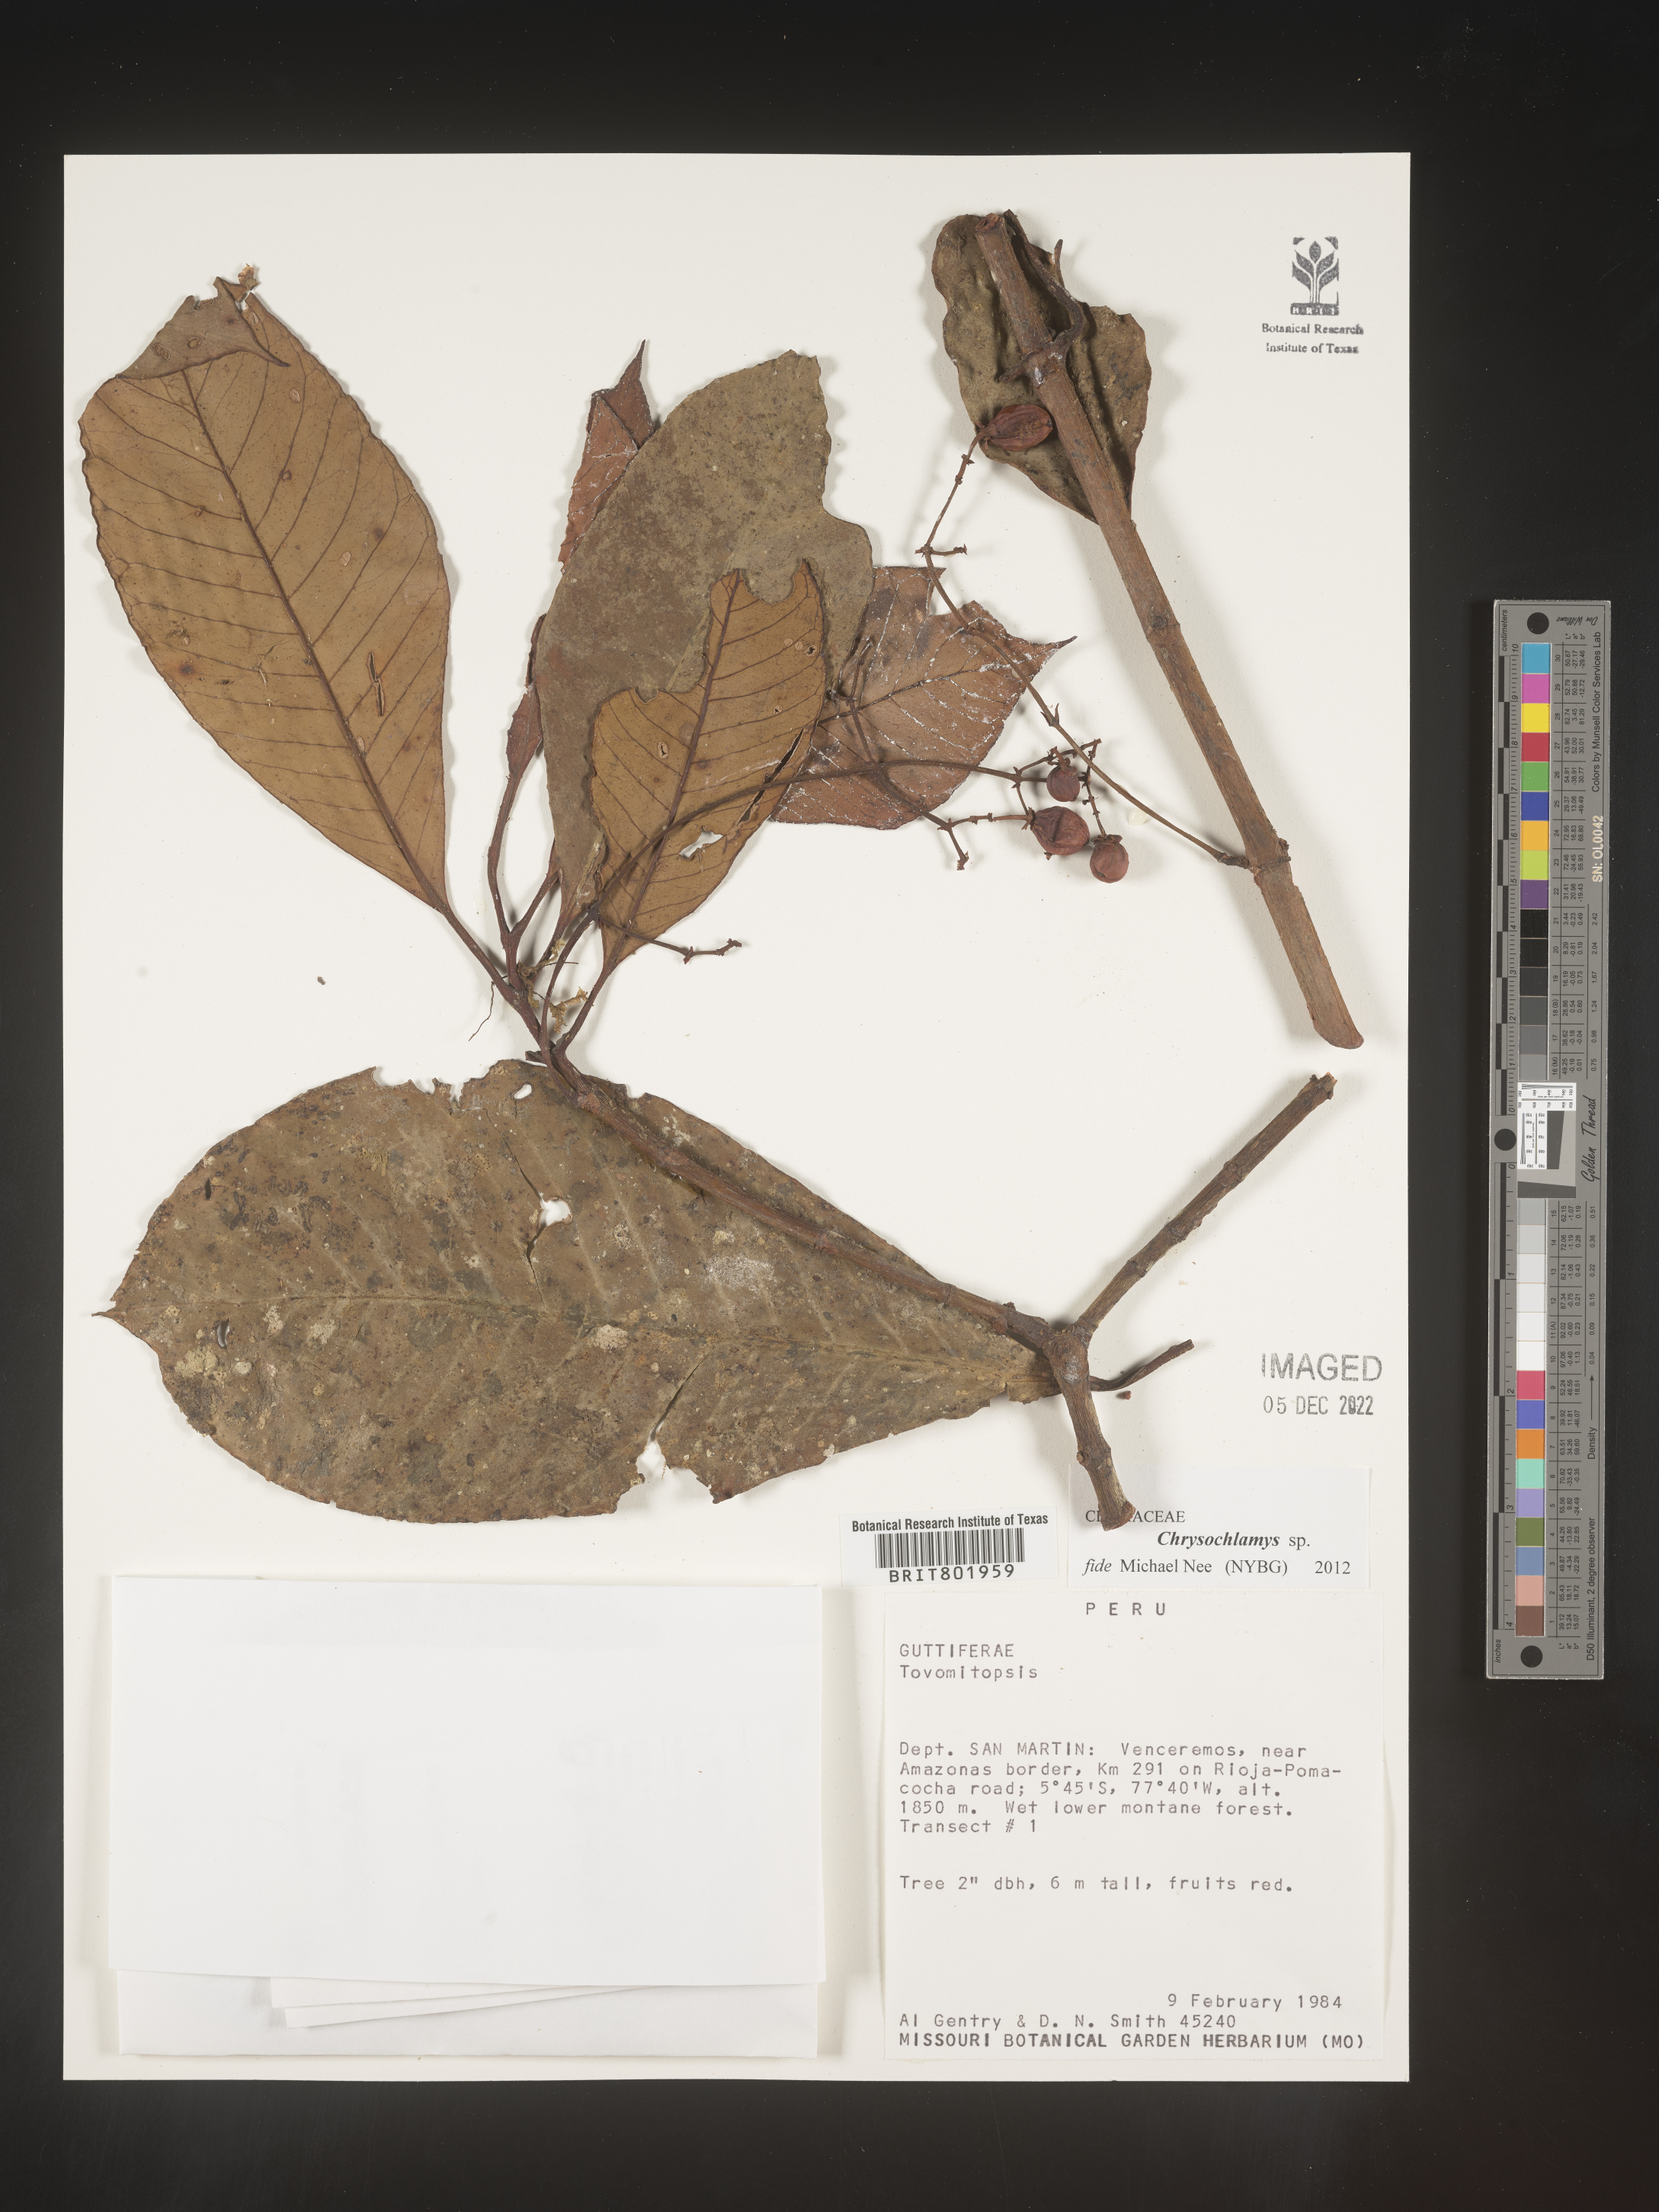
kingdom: Plantae
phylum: Tracheophyta
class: Magnoliopsida
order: Malpighiales
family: Clusiaceae
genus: Chrysochlamys
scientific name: Chrysochlamys
